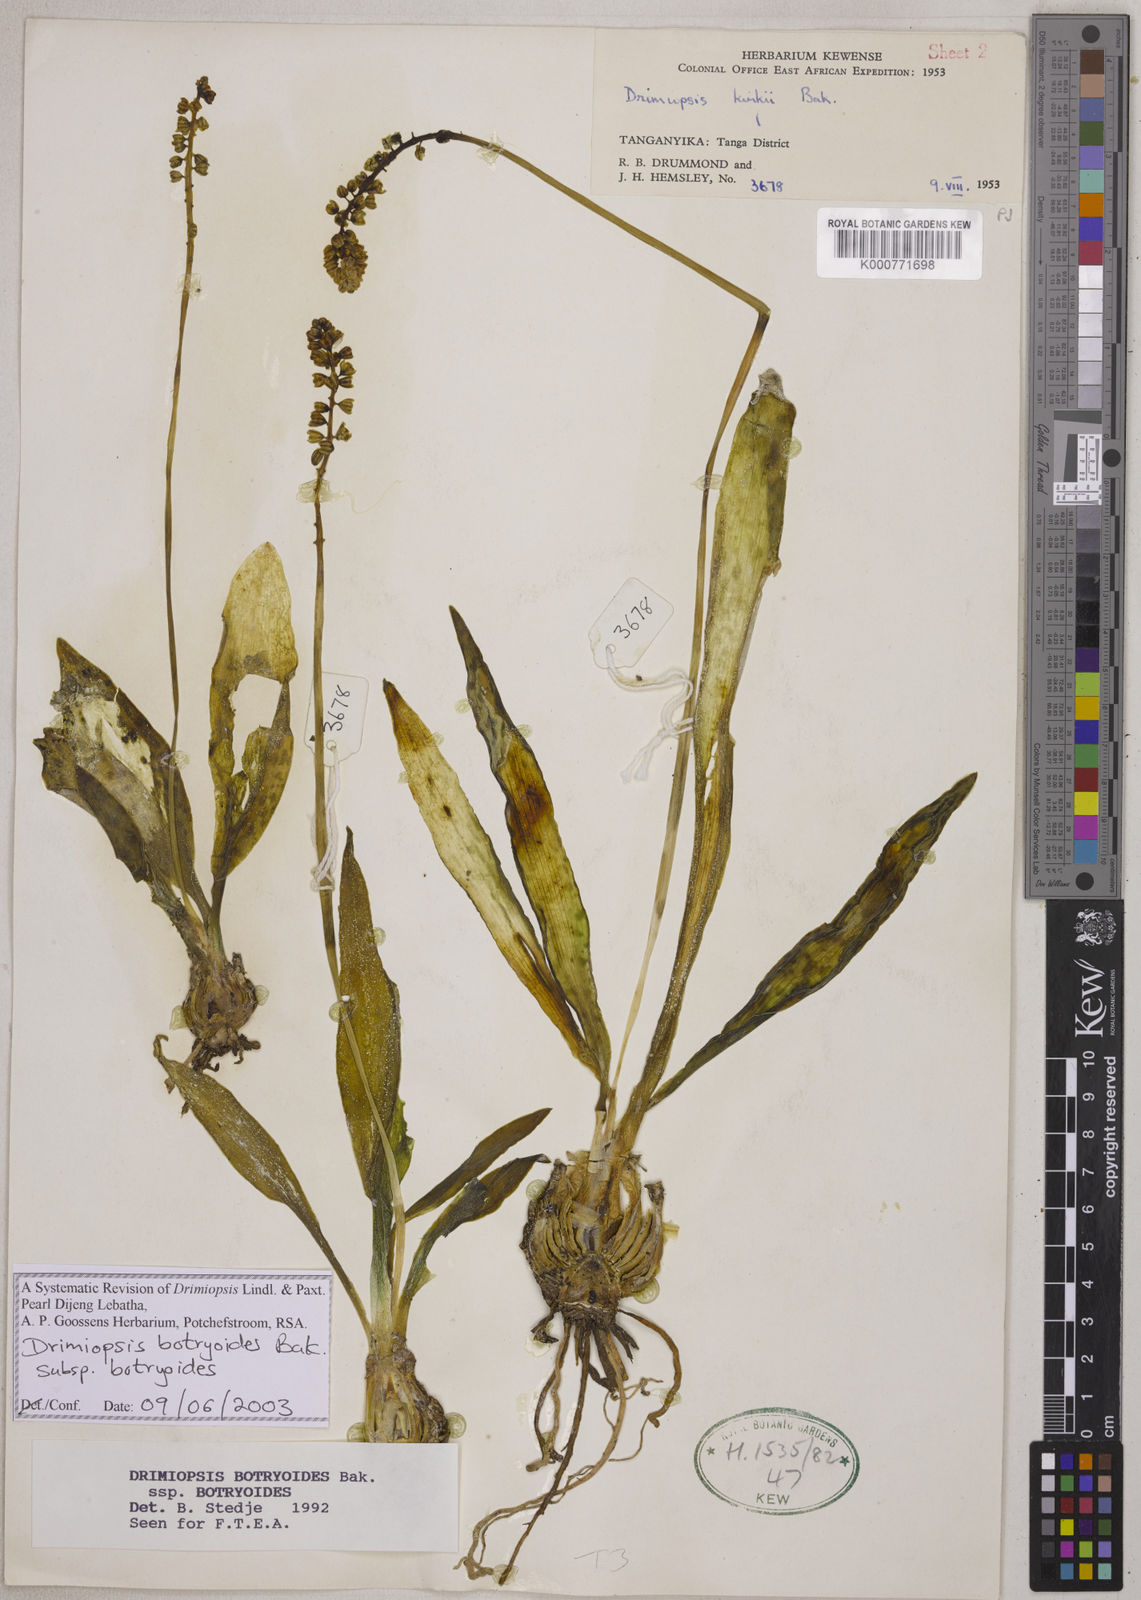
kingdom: Plantae
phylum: Tracheophyta
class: Liliopsida
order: Asparagales
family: Asparagaceae
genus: Drimiopsis
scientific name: Drimiopsis botryoides
